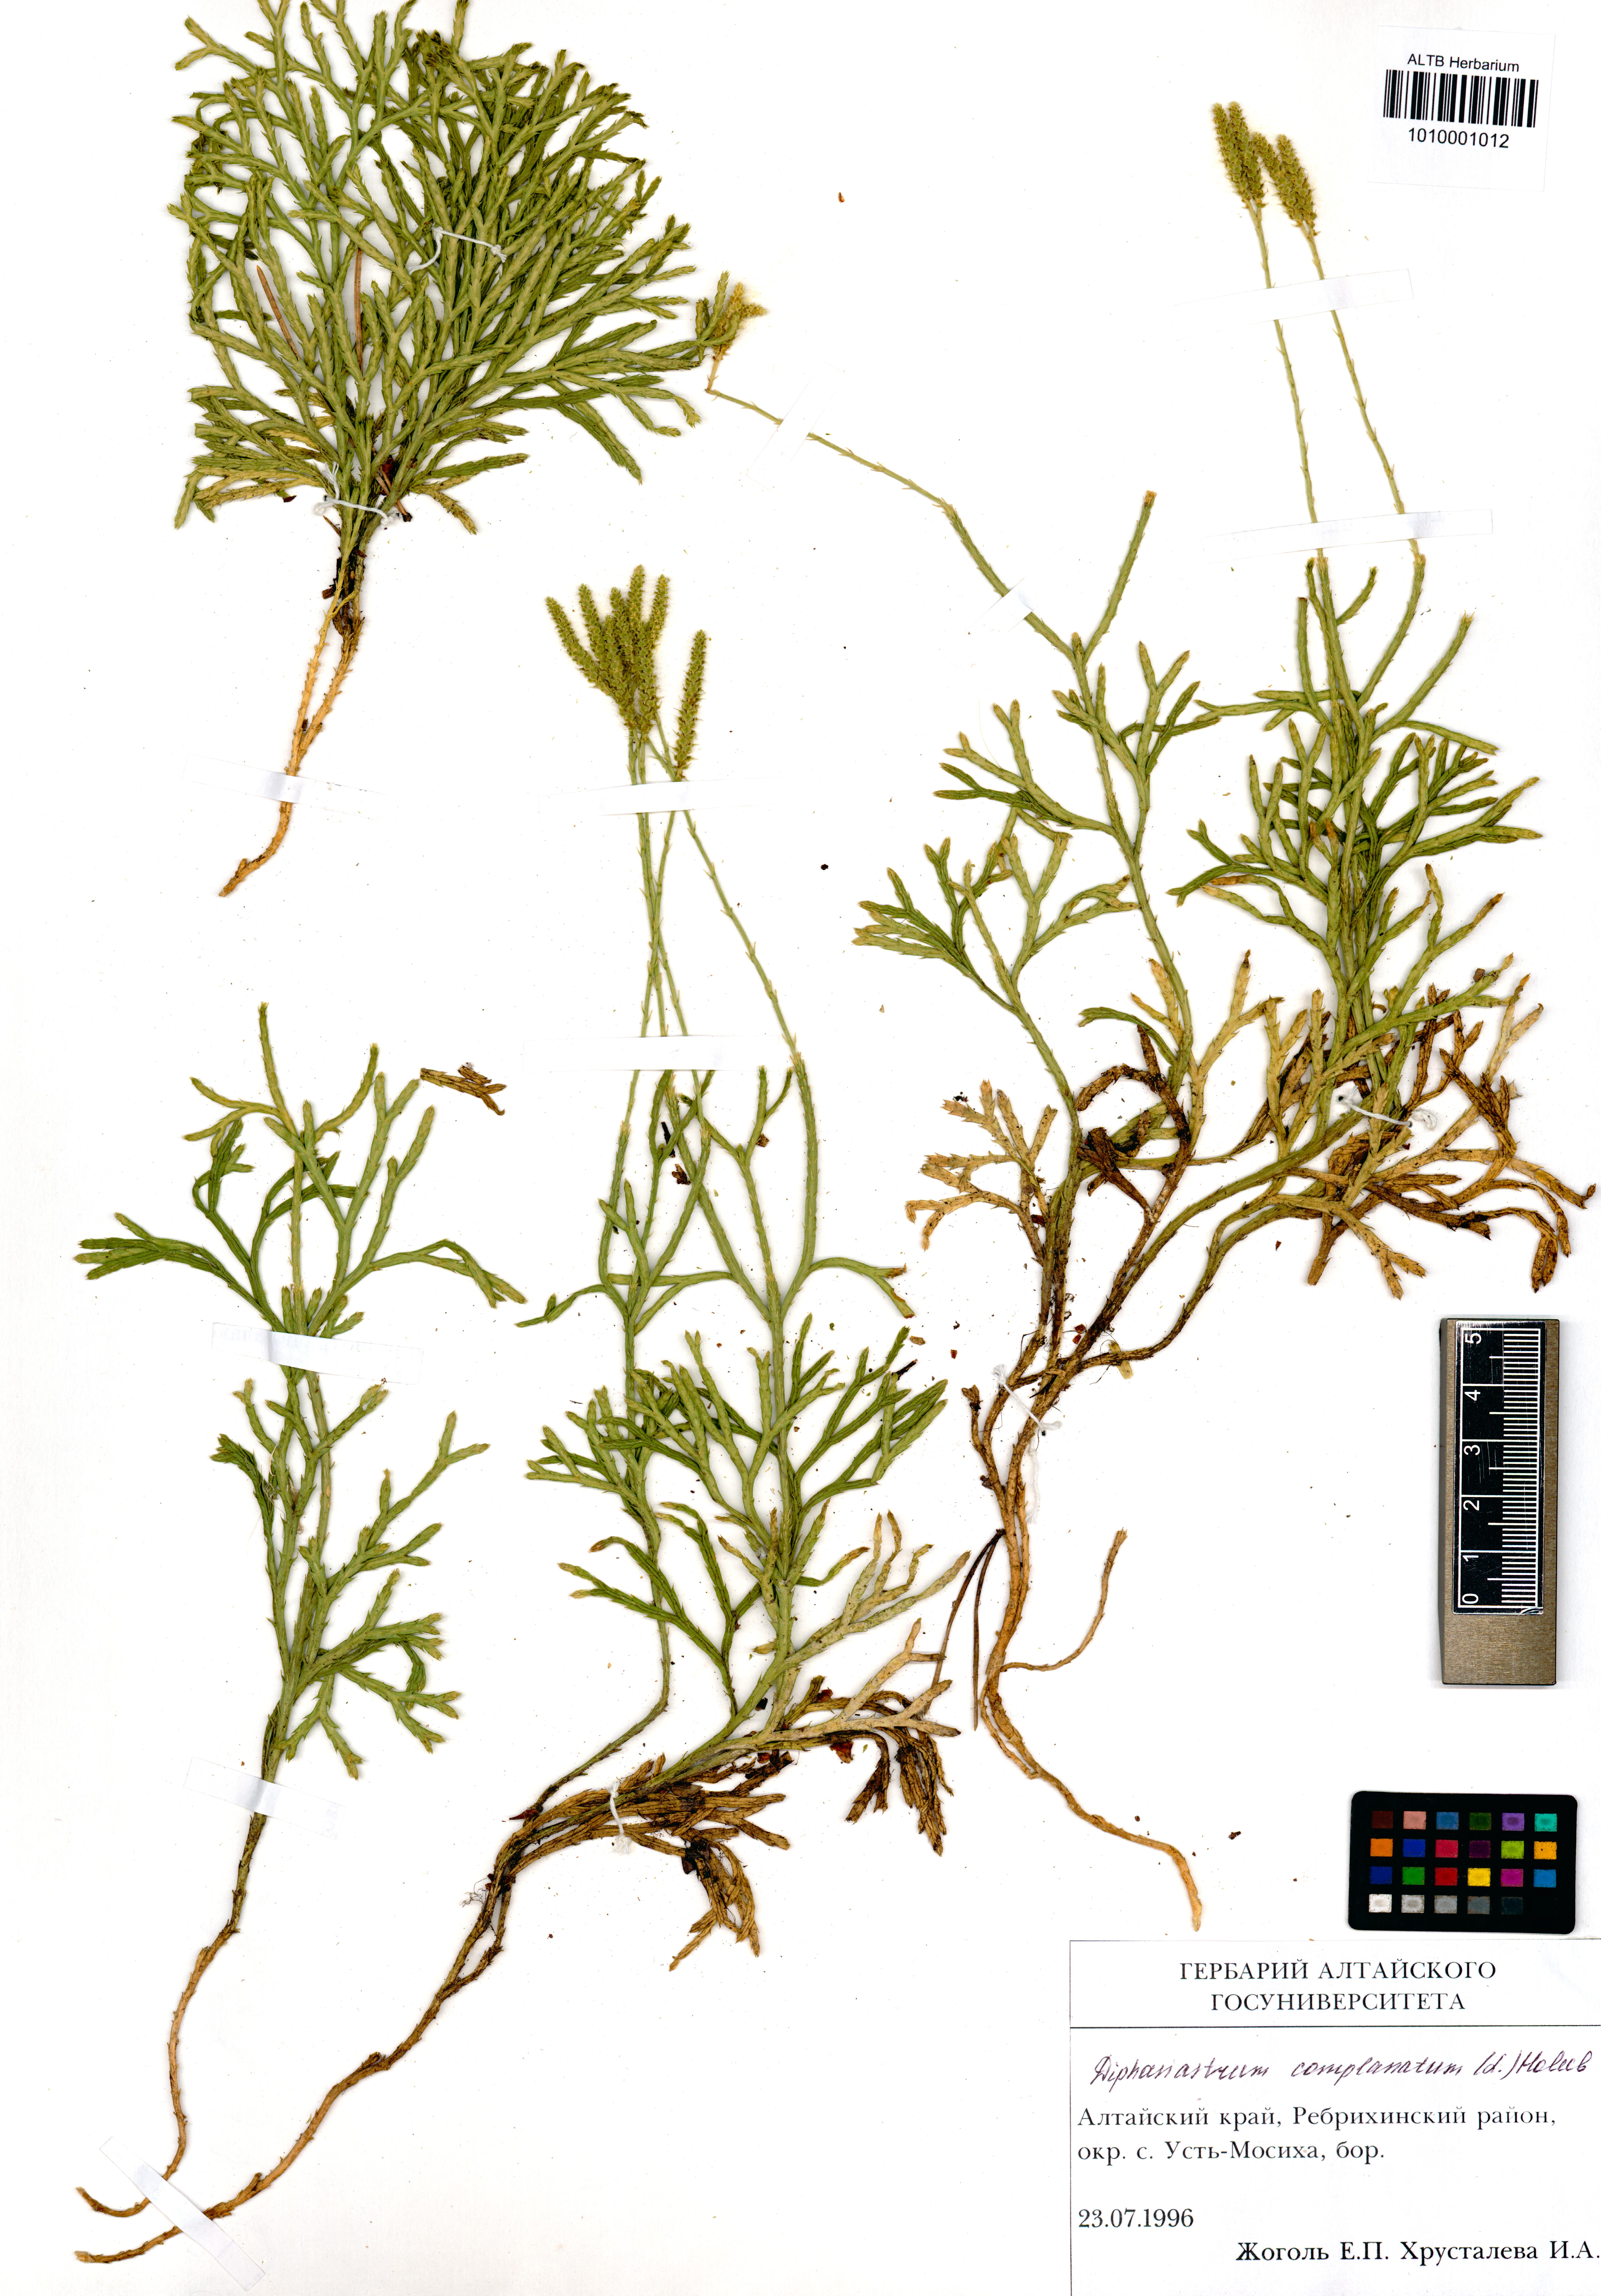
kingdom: Plantae
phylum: Tracheophyta
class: Lycopodiopsida
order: Lycopodiales
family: Lycopodiaceae
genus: Diphasiastrum
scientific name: Diphasiastrum complanatum
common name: Northern running-pine
